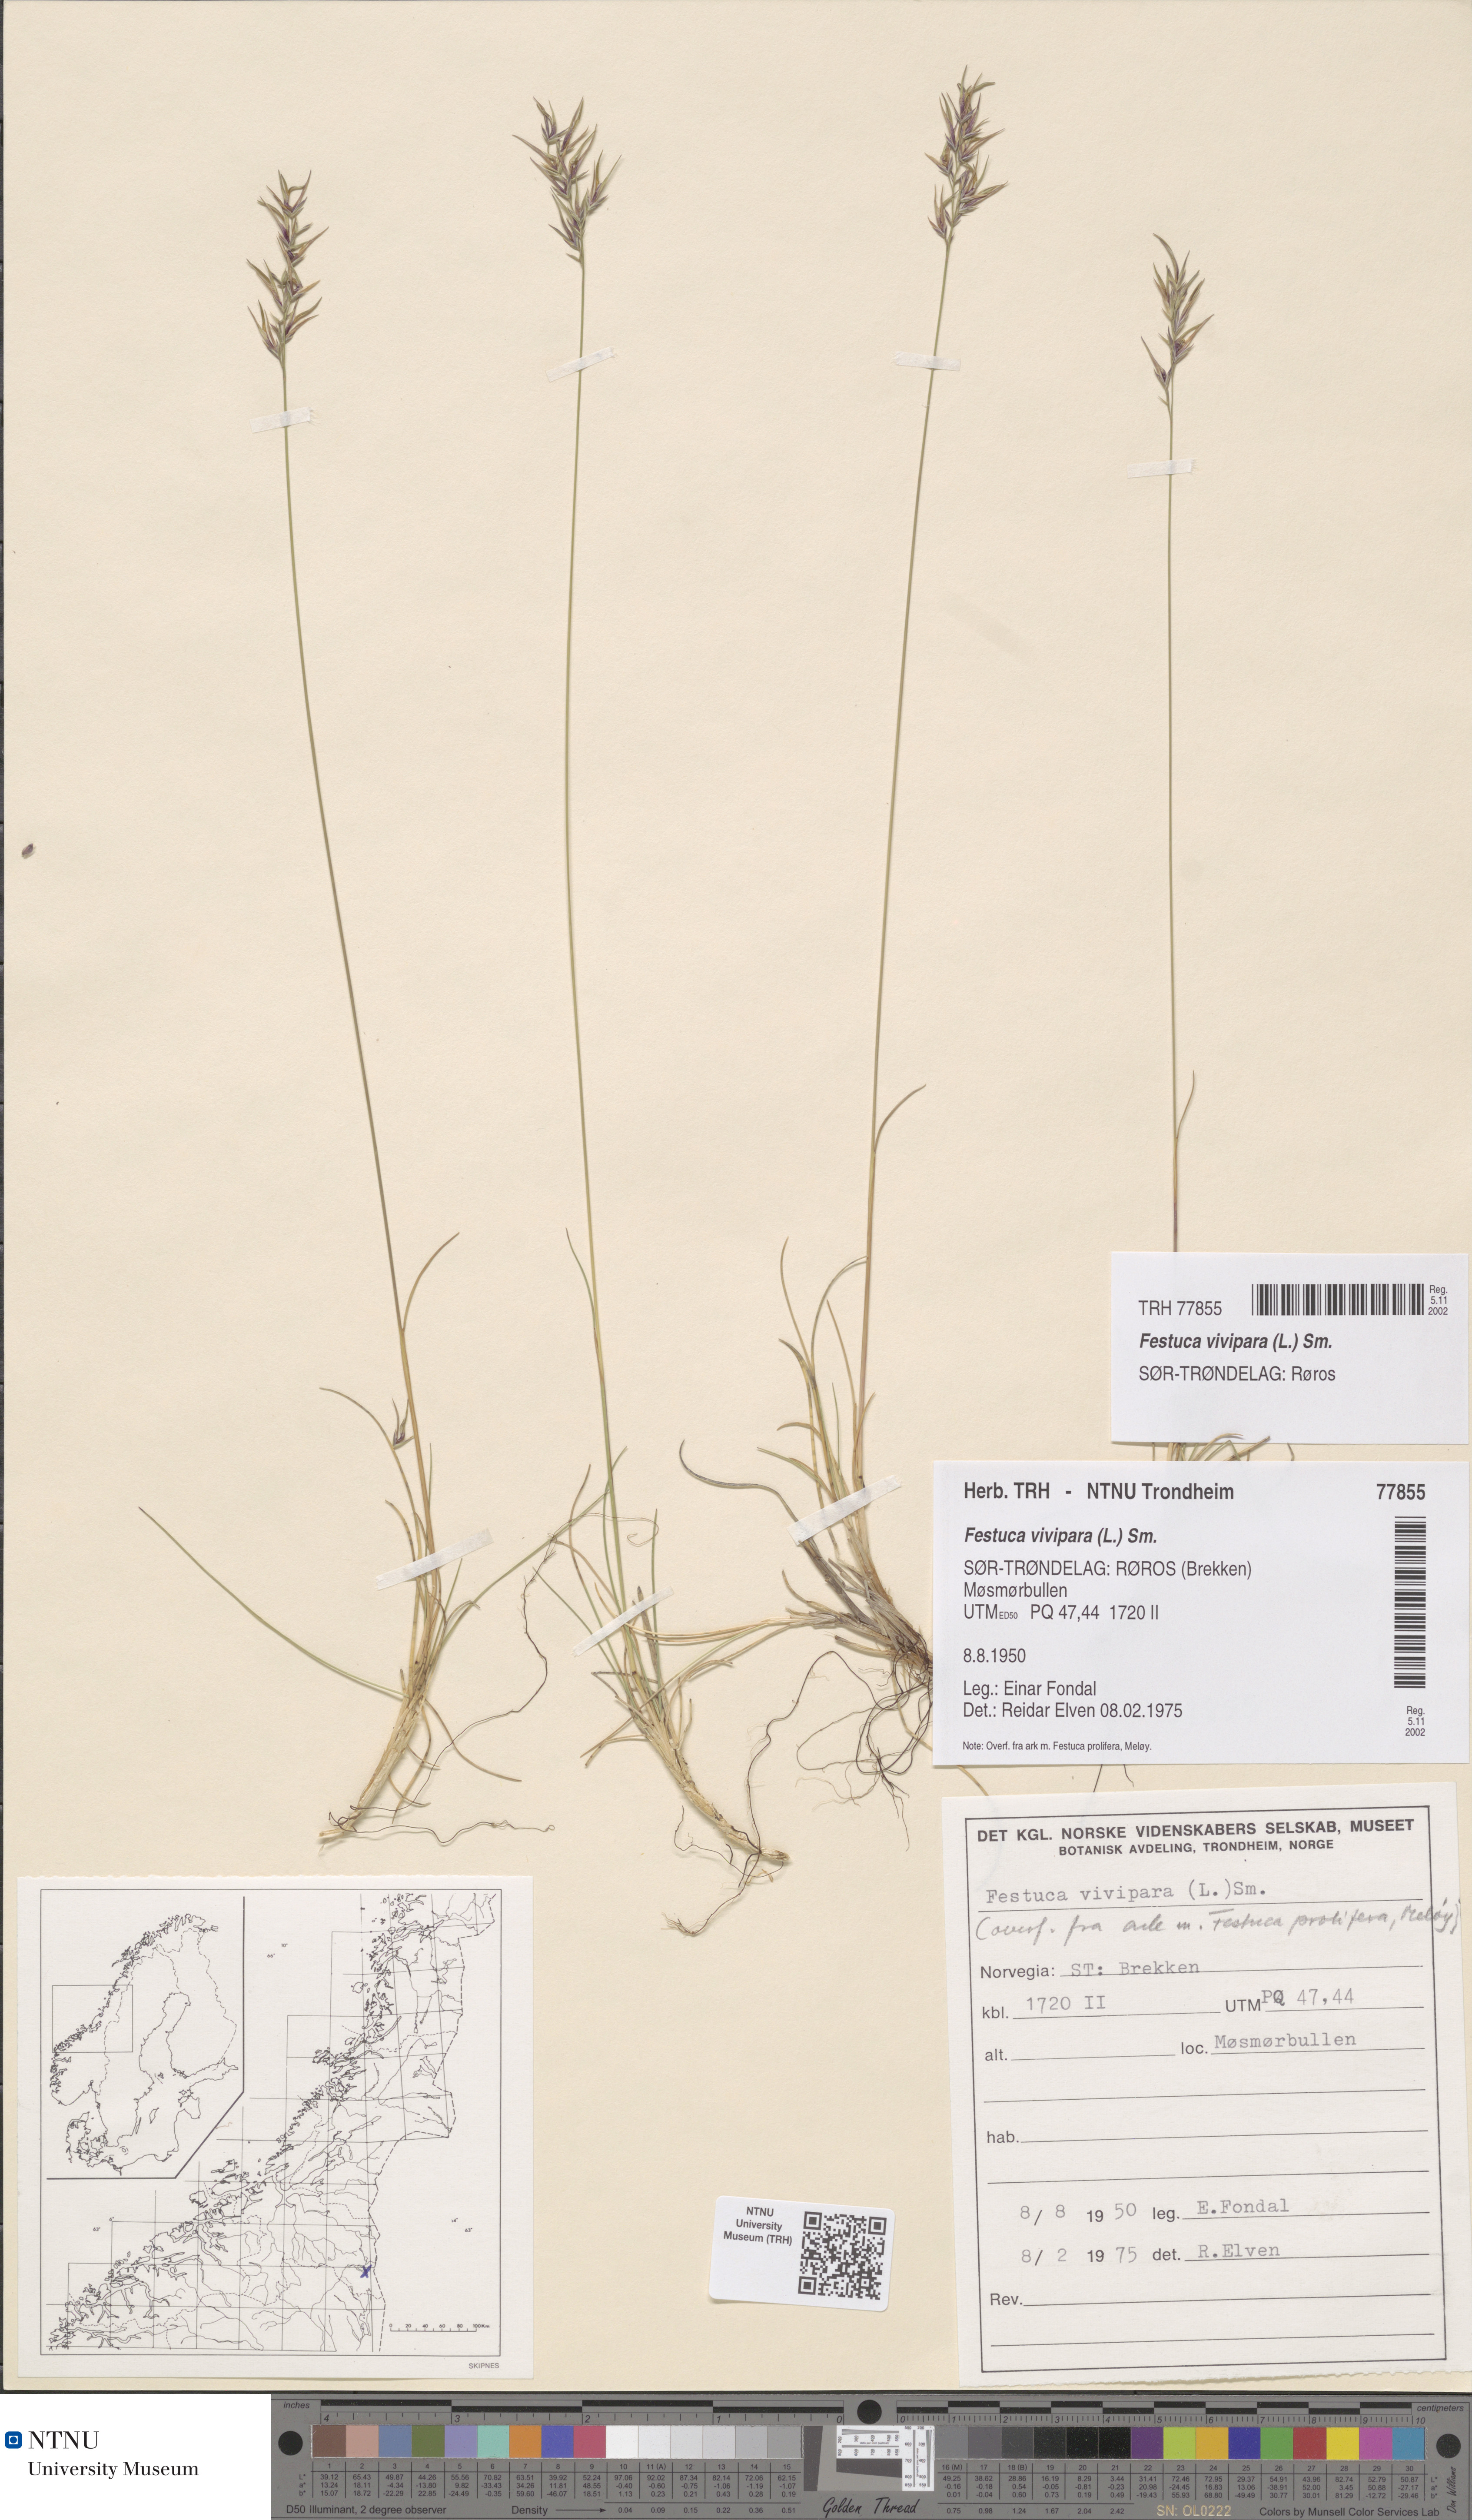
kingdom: Plantae
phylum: Tracheophyta
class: Liliopsida
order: Poales
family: Poaceae
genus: Festuca
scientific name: Festuca vivipara
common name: Viviparous sheep's-fescue
